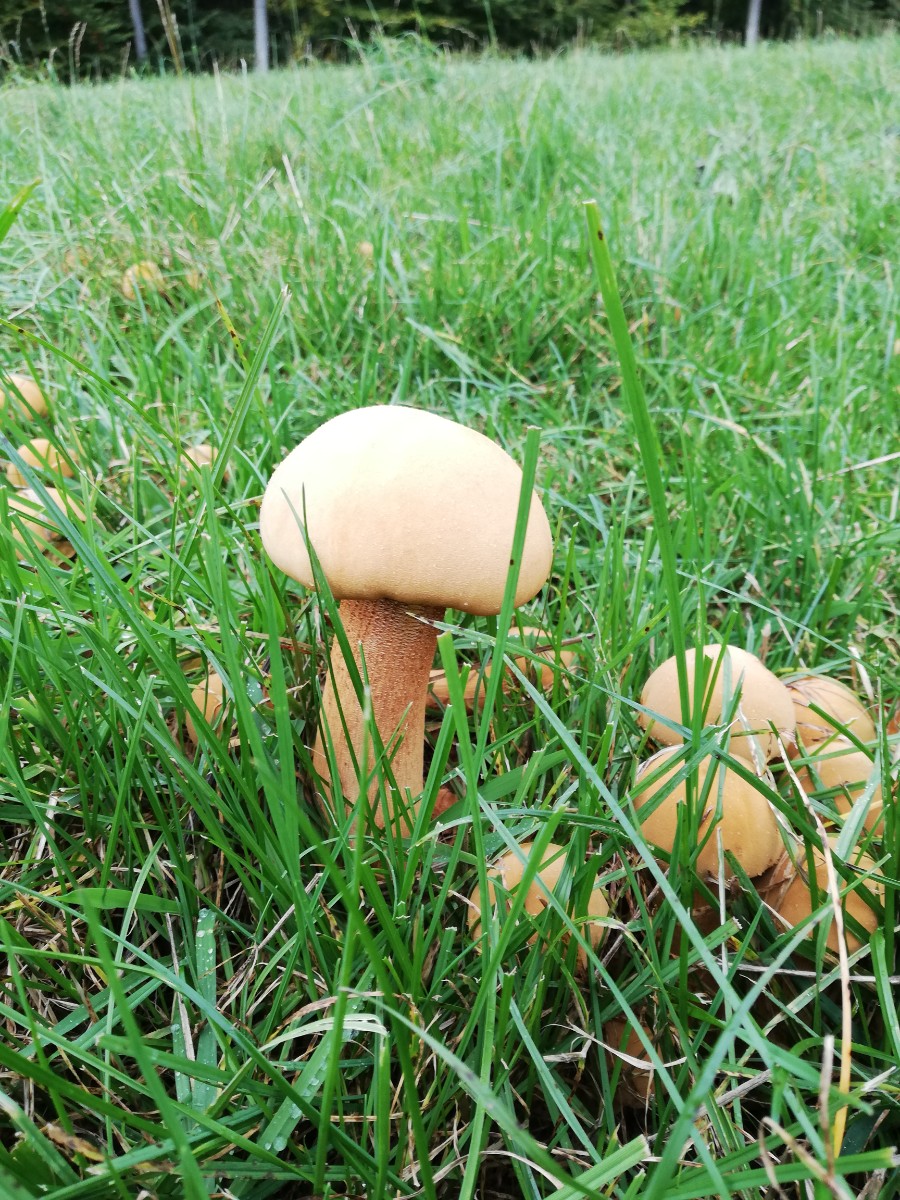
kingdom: Fungi
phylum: Basidiomycota
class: Agaricomycetes
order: Agaricales
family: Tricholomataceae
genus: Phaeolepiota
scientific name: Phaeolepiota aurea
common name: gyldenhat
